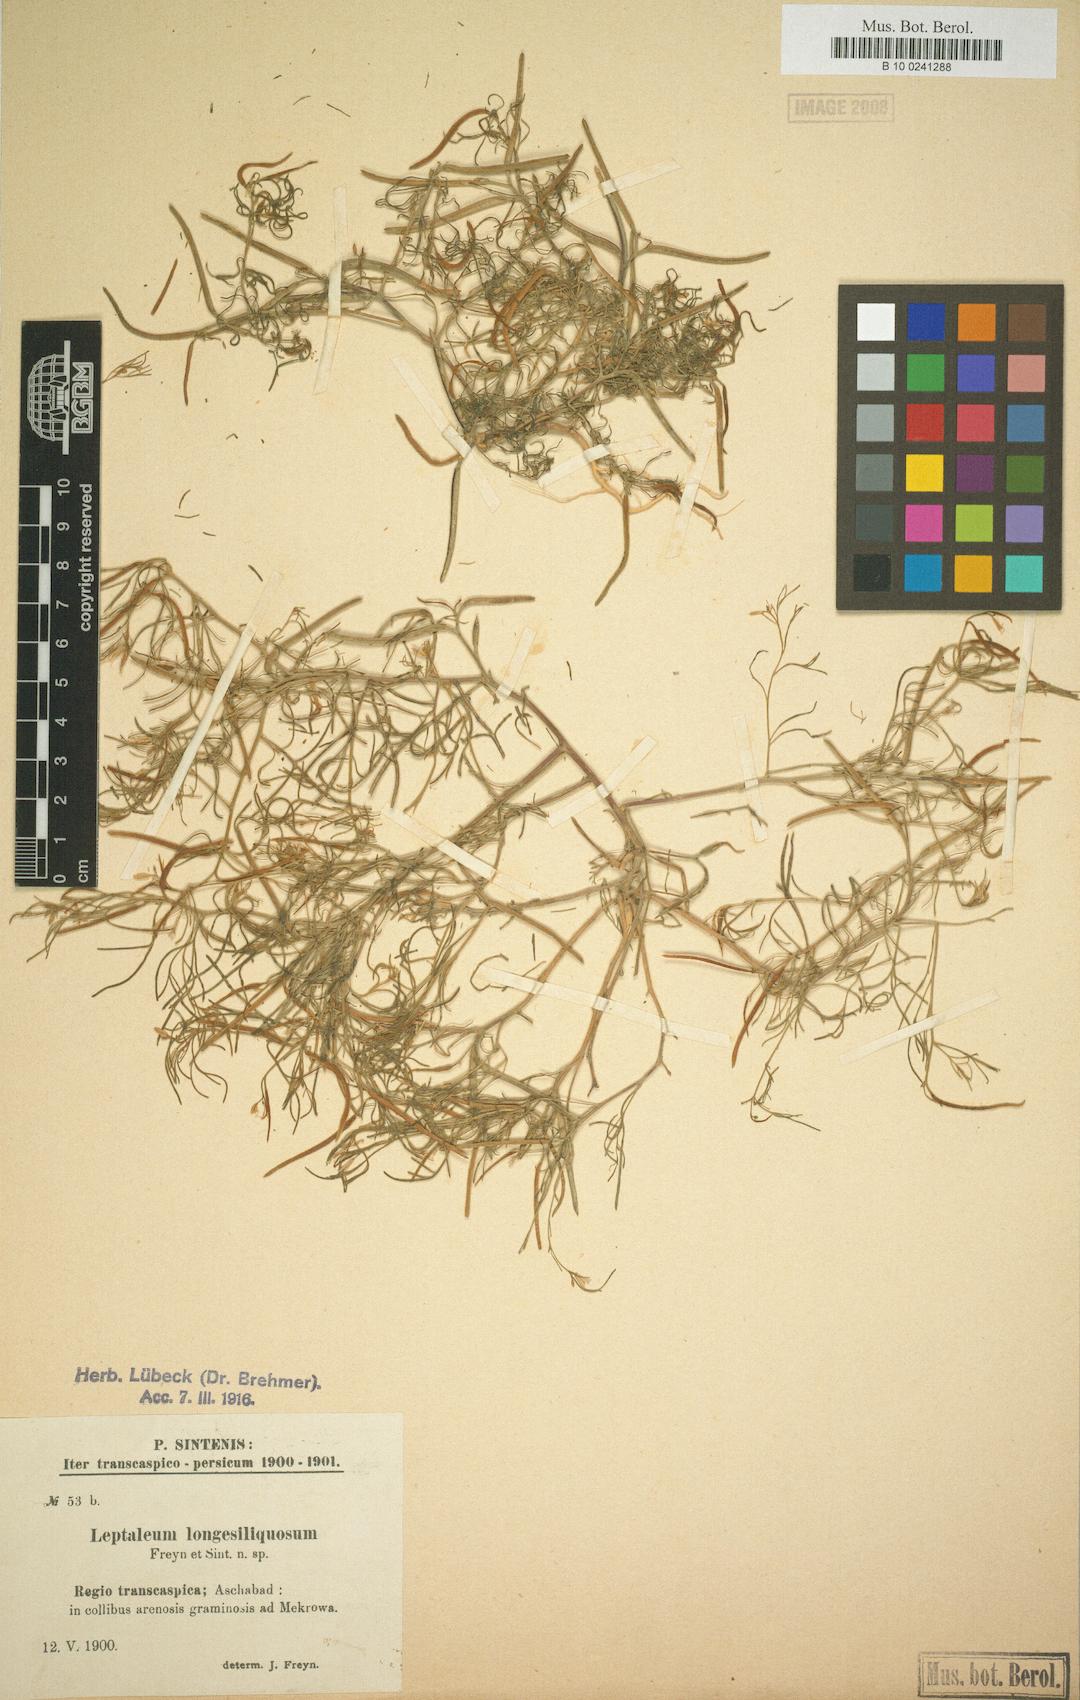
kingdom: Plantae
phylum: Tracheophyta
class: Magnoliopsida
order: Brassicales
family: Brassicaceae
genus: Leptaleum
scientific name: Leptaleum filifolium
